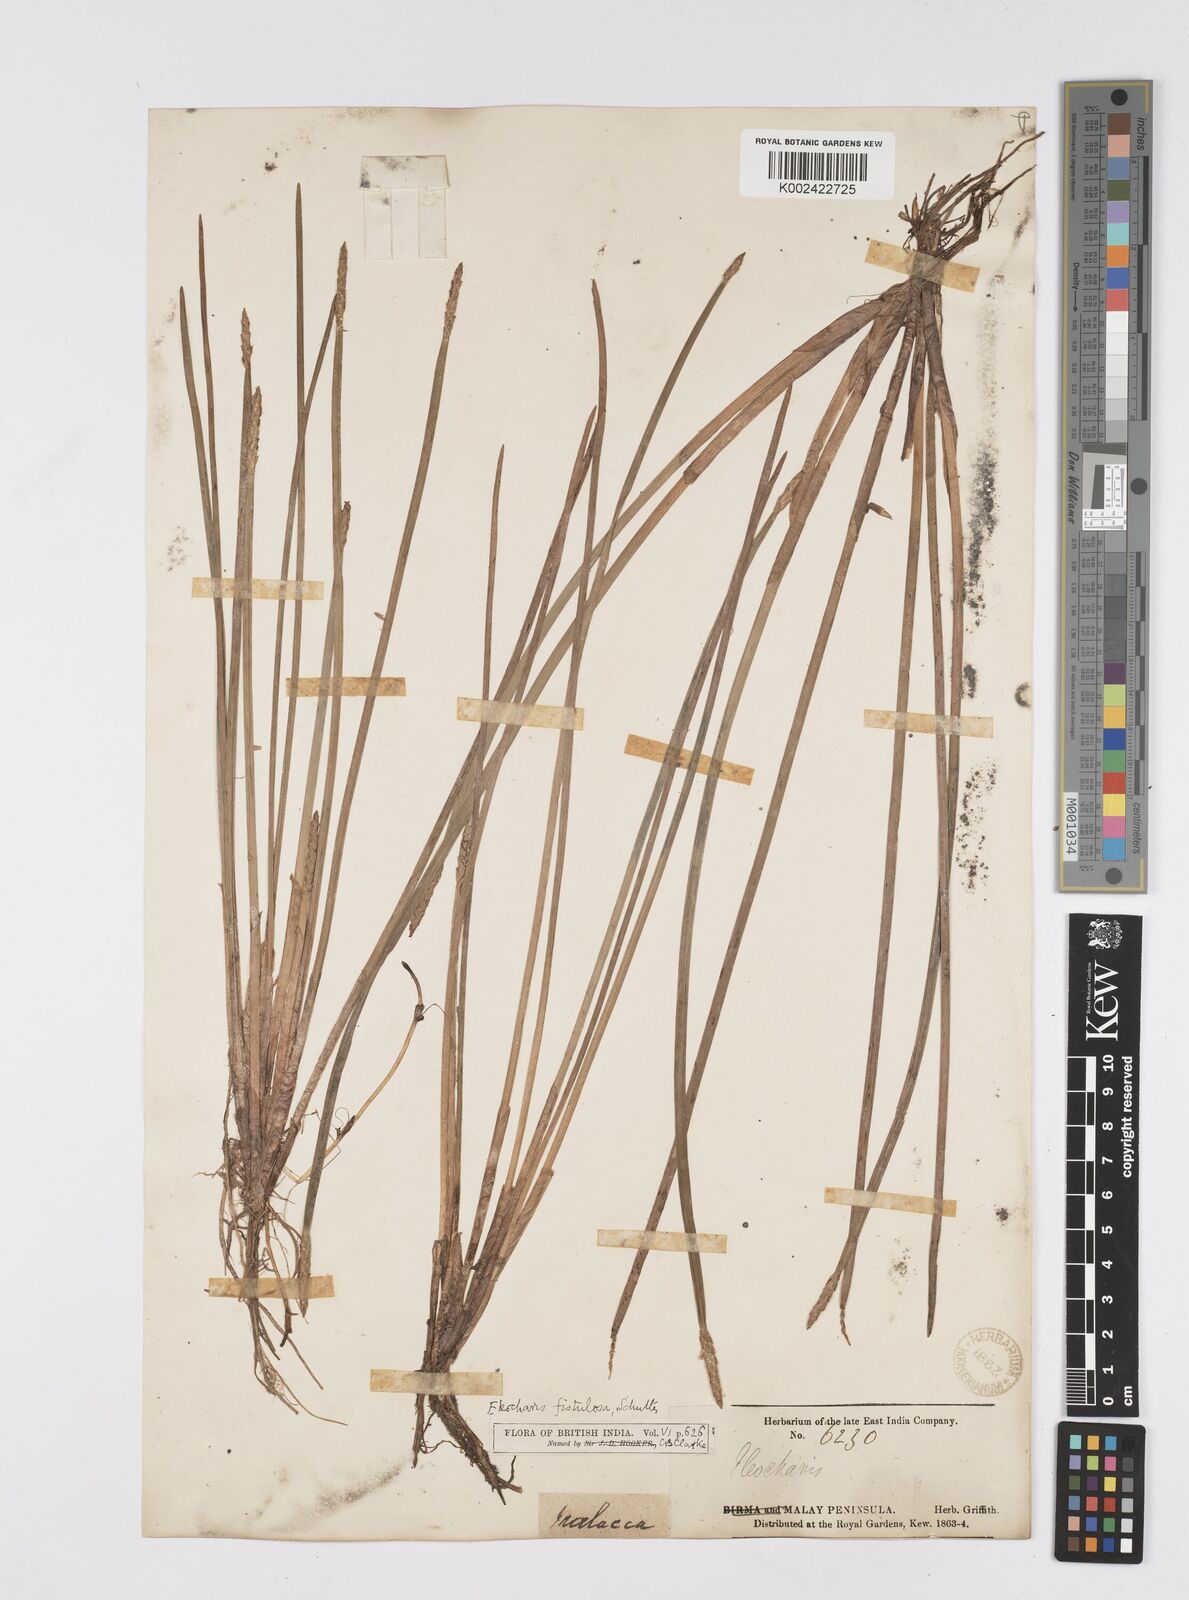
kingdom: Plantae
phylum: Tracheophyta
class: Liliopsida
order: Poales
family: Cyperaceae
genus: Eleocharis
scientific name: Eleocharis acutangula
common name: Acute spikerush
